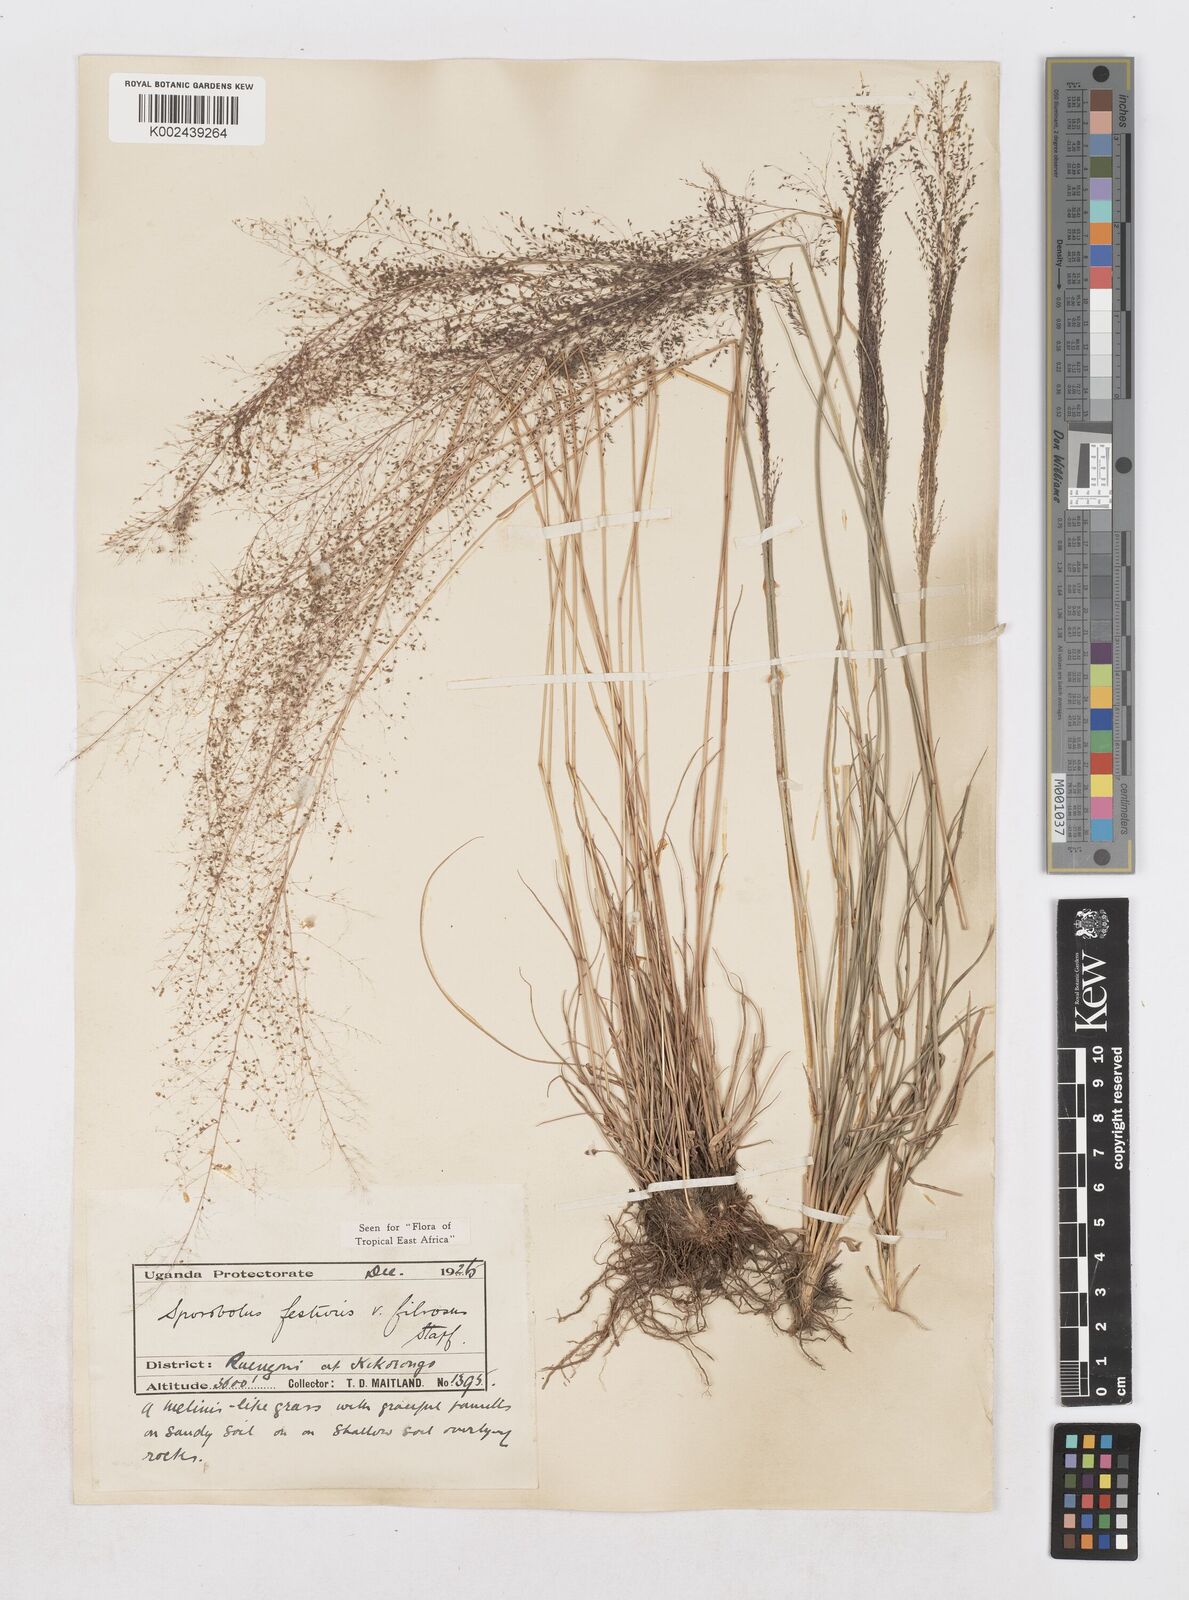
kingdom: Plantae
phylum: Tracheophyta
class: Liliopsida
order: Poales
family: Poaceae
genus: Sporobolus
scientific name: Sporobolus festivus
